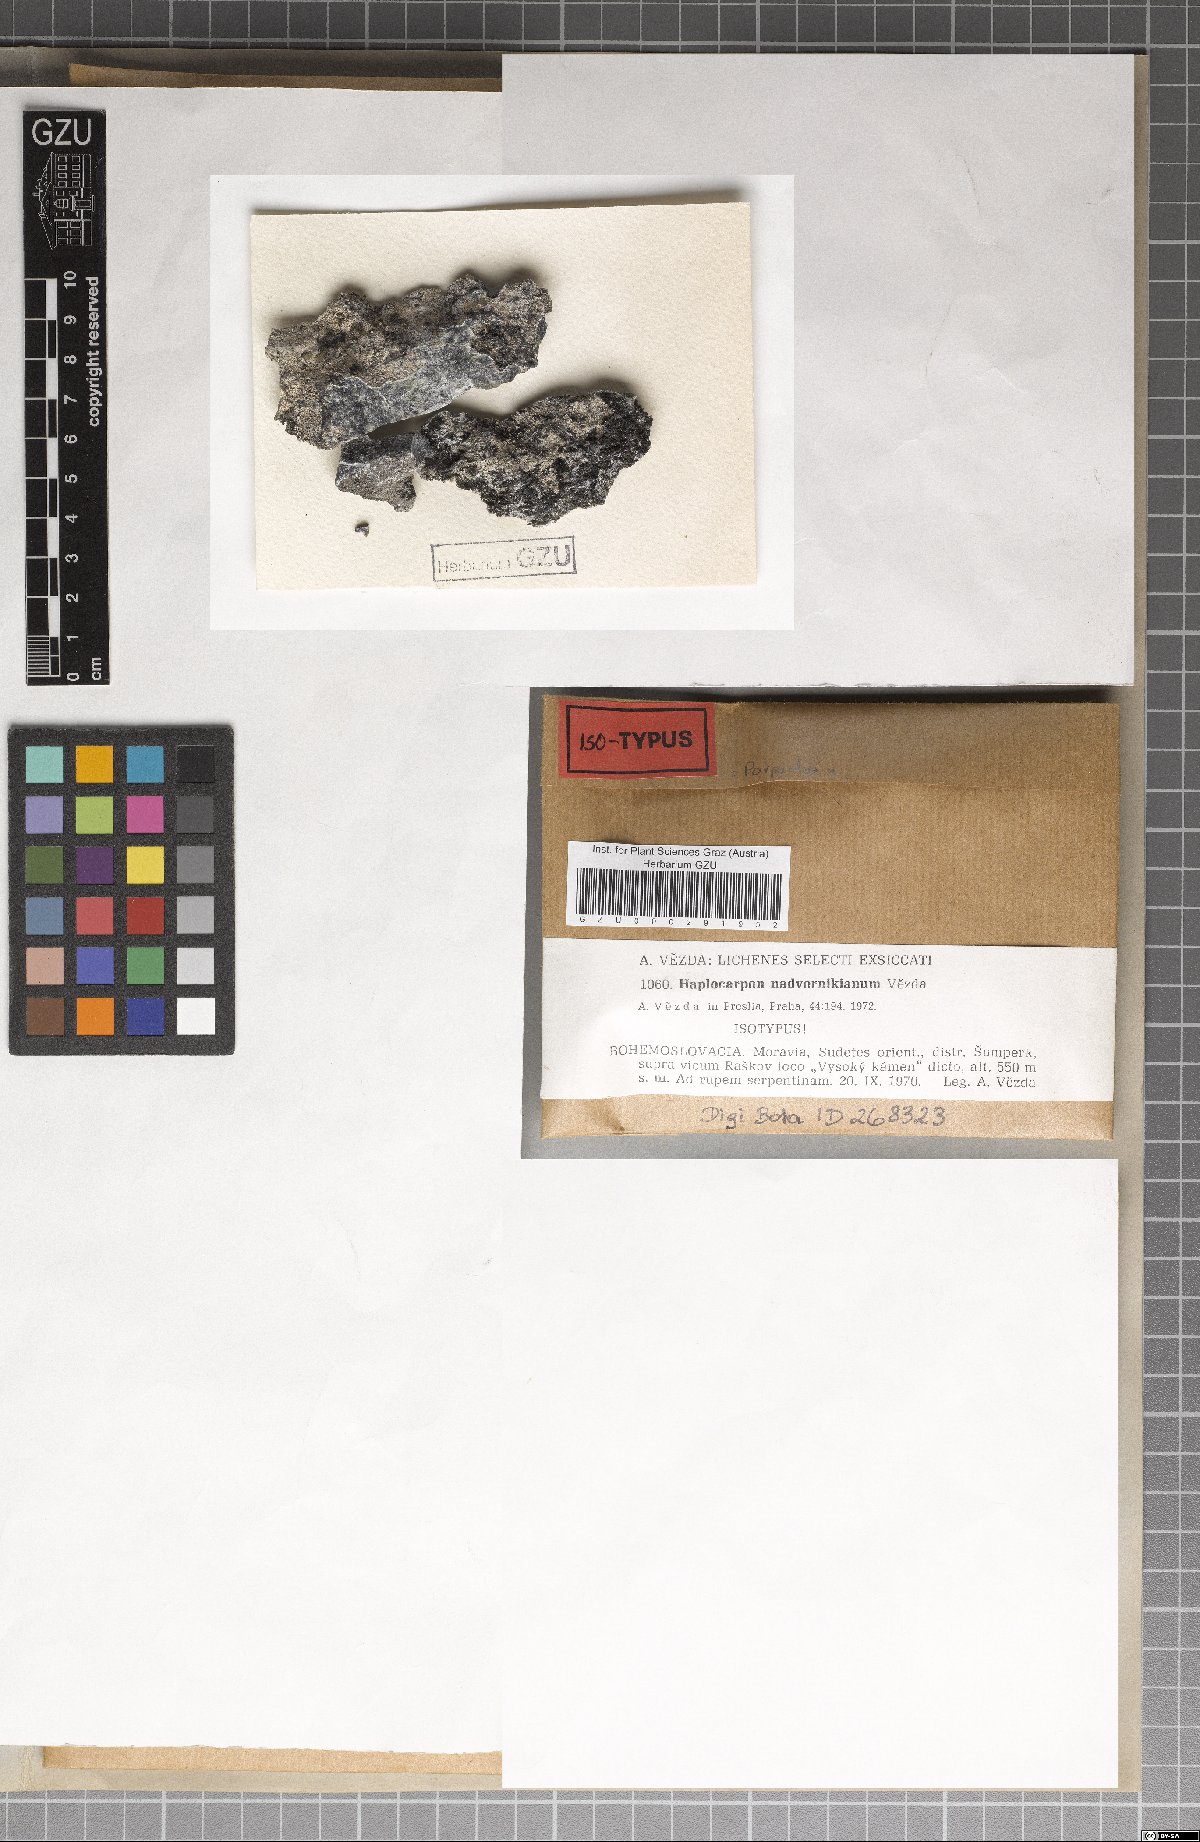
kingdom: Fungi
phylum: Ascomycota
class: Lecanoromycetes
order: Lecideales
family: Lecideaceae
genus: Porpidia
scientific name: Porpidia nadvornikiana
